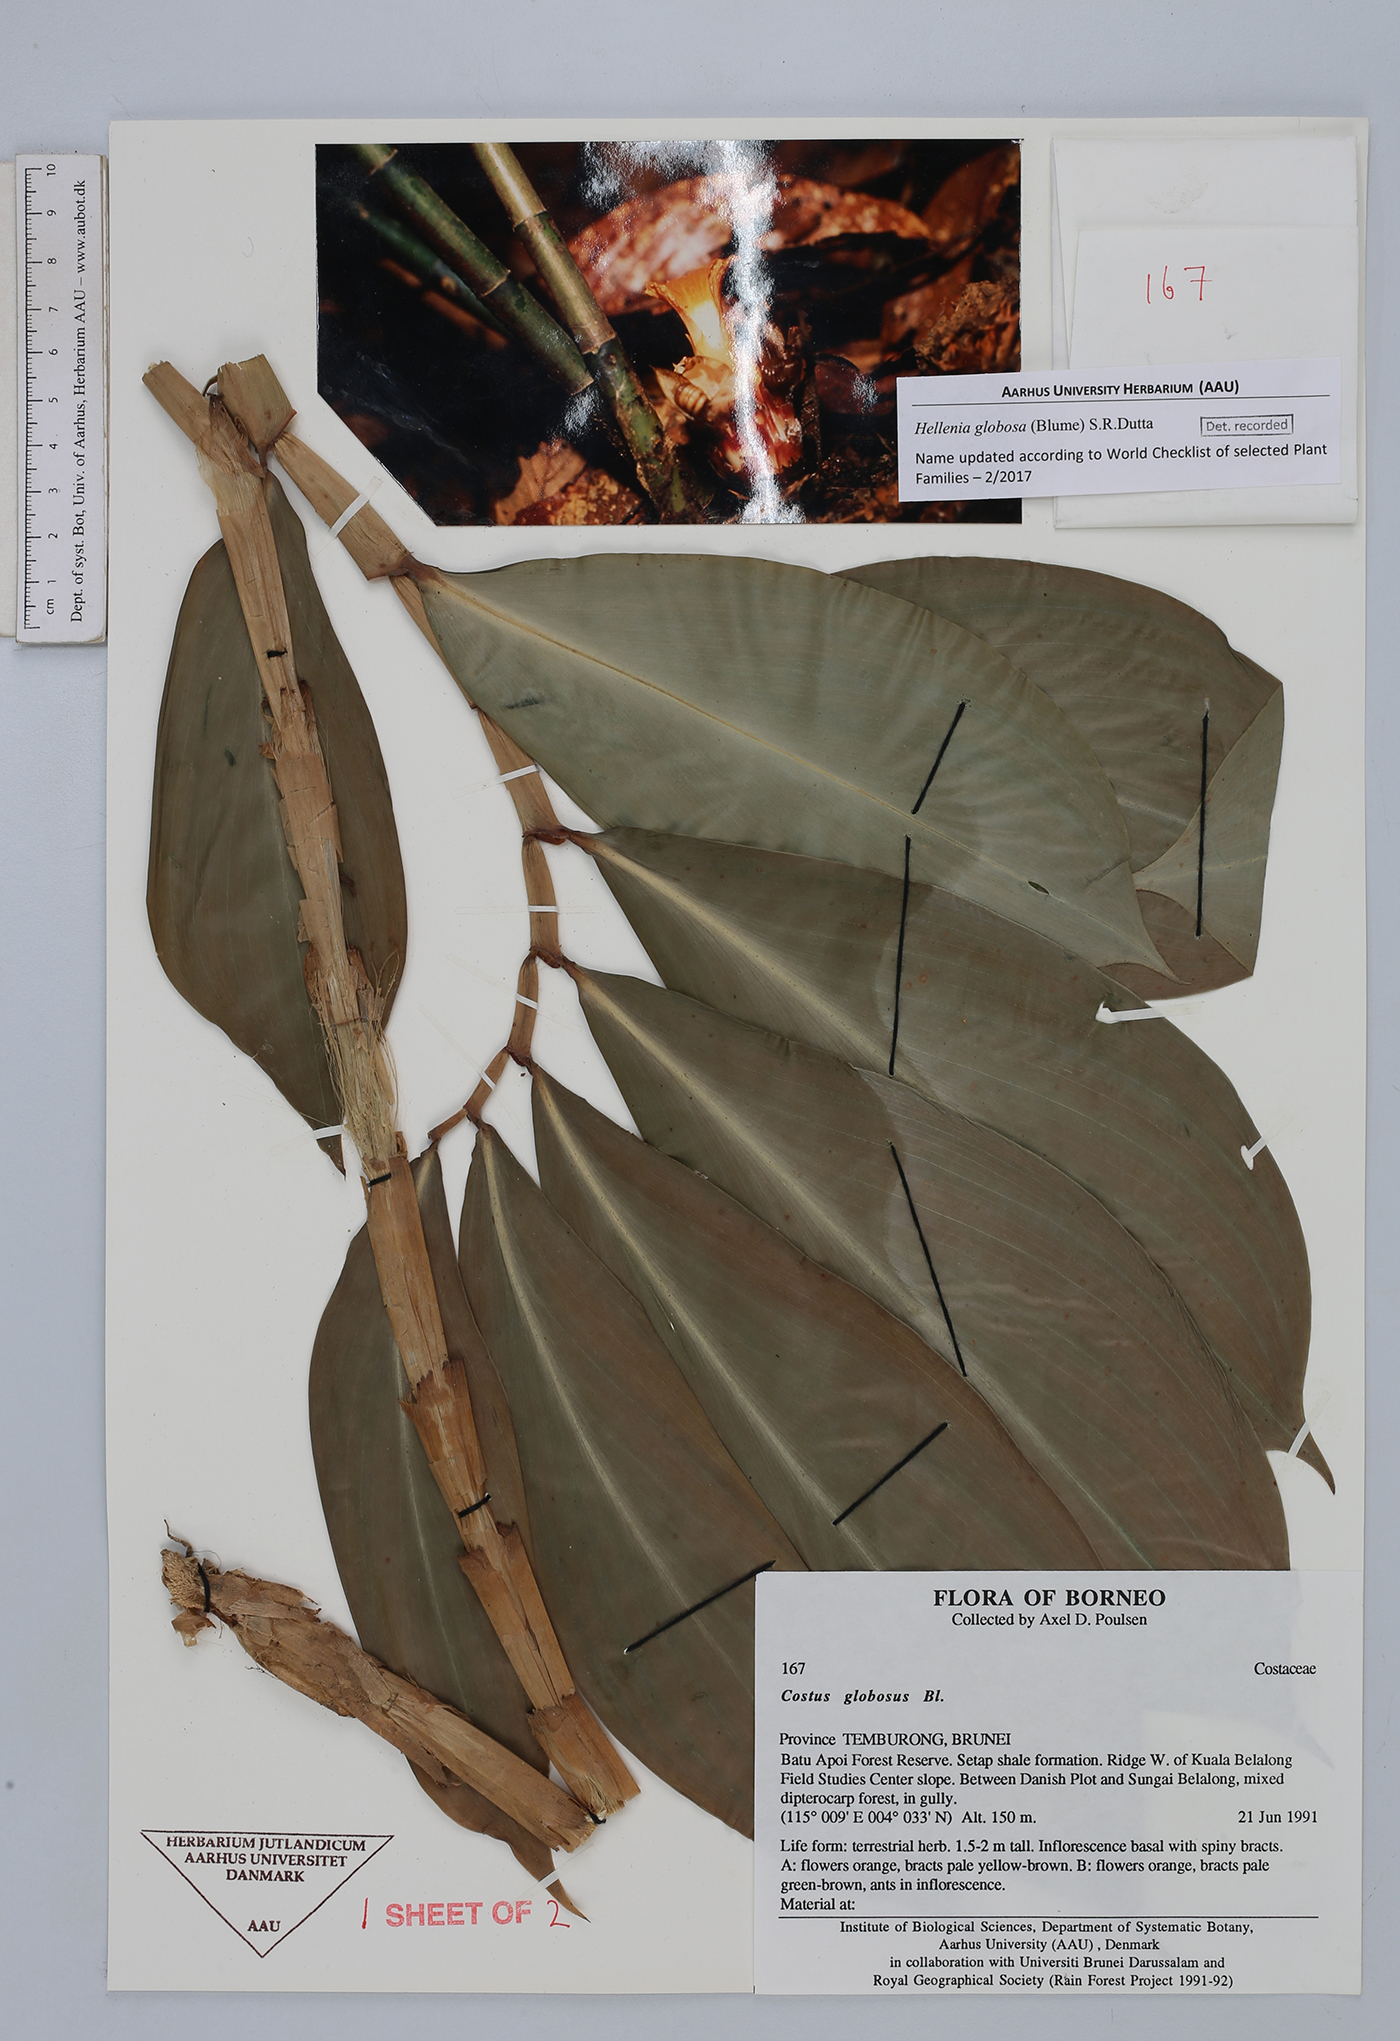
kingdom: Plantae
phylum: Tracheophyta
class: Liliopsida
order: Zingiberales
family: Costaceae
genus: Hellenia
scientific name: Hellenia globosa
